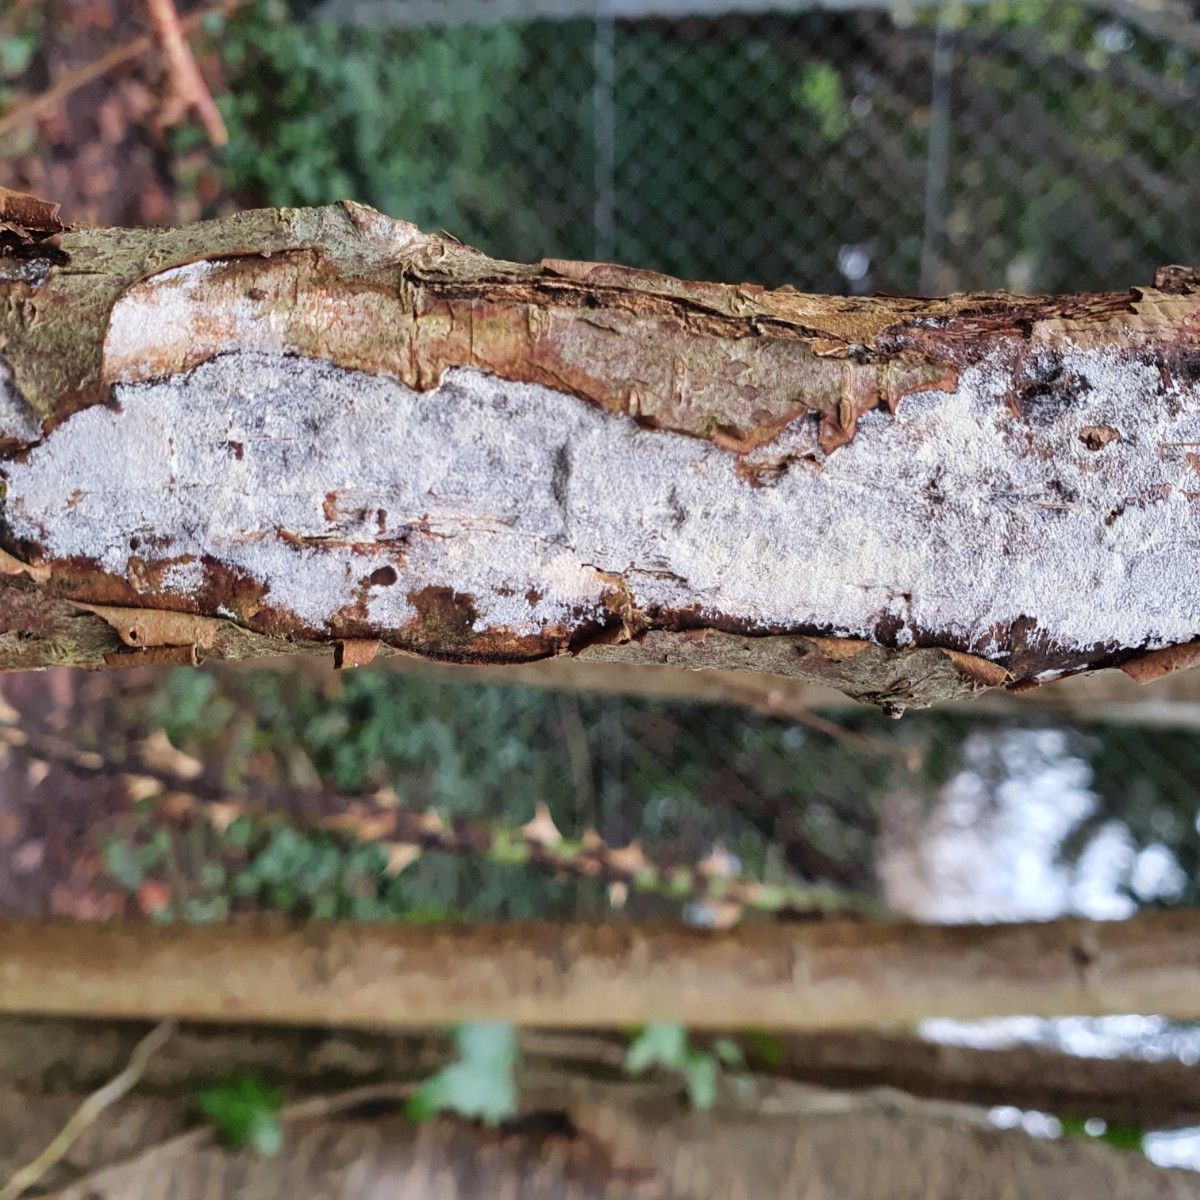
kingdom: Fungi
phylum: Basidiomycota
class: Agaricomycetes
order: Corticiales
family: Corticiaceae
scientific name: Corticiaceae
